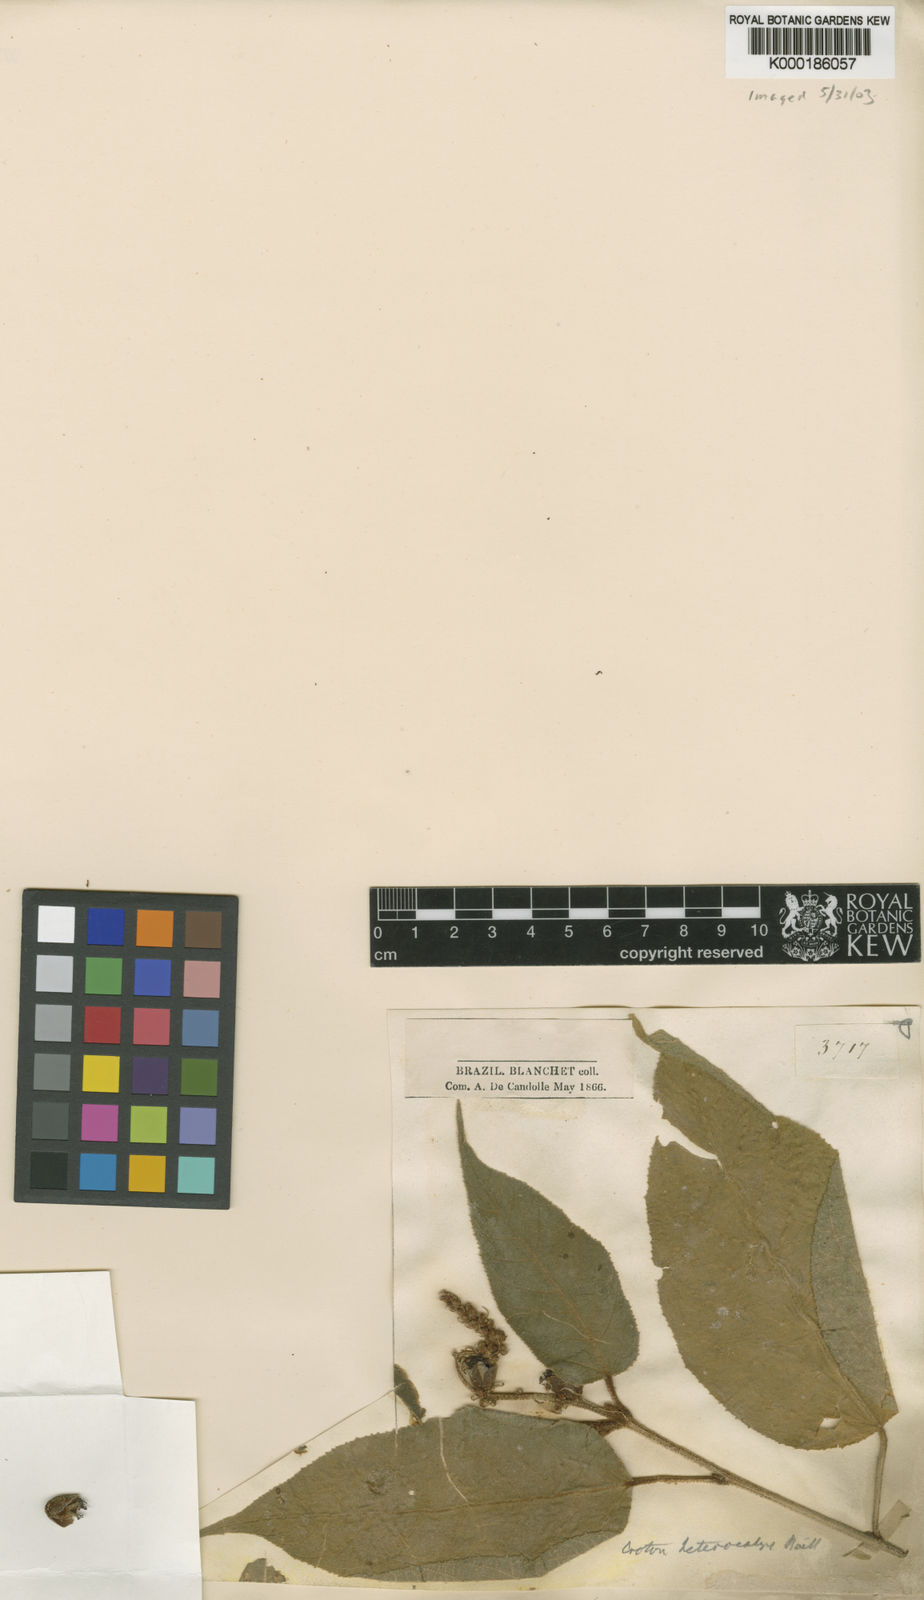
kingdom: Plantae
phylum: Tracheophyta
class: Magnoliopsida
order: Malpighiales
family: Euphorbiaceae
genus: Croton
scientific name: Croton heterocalyx
